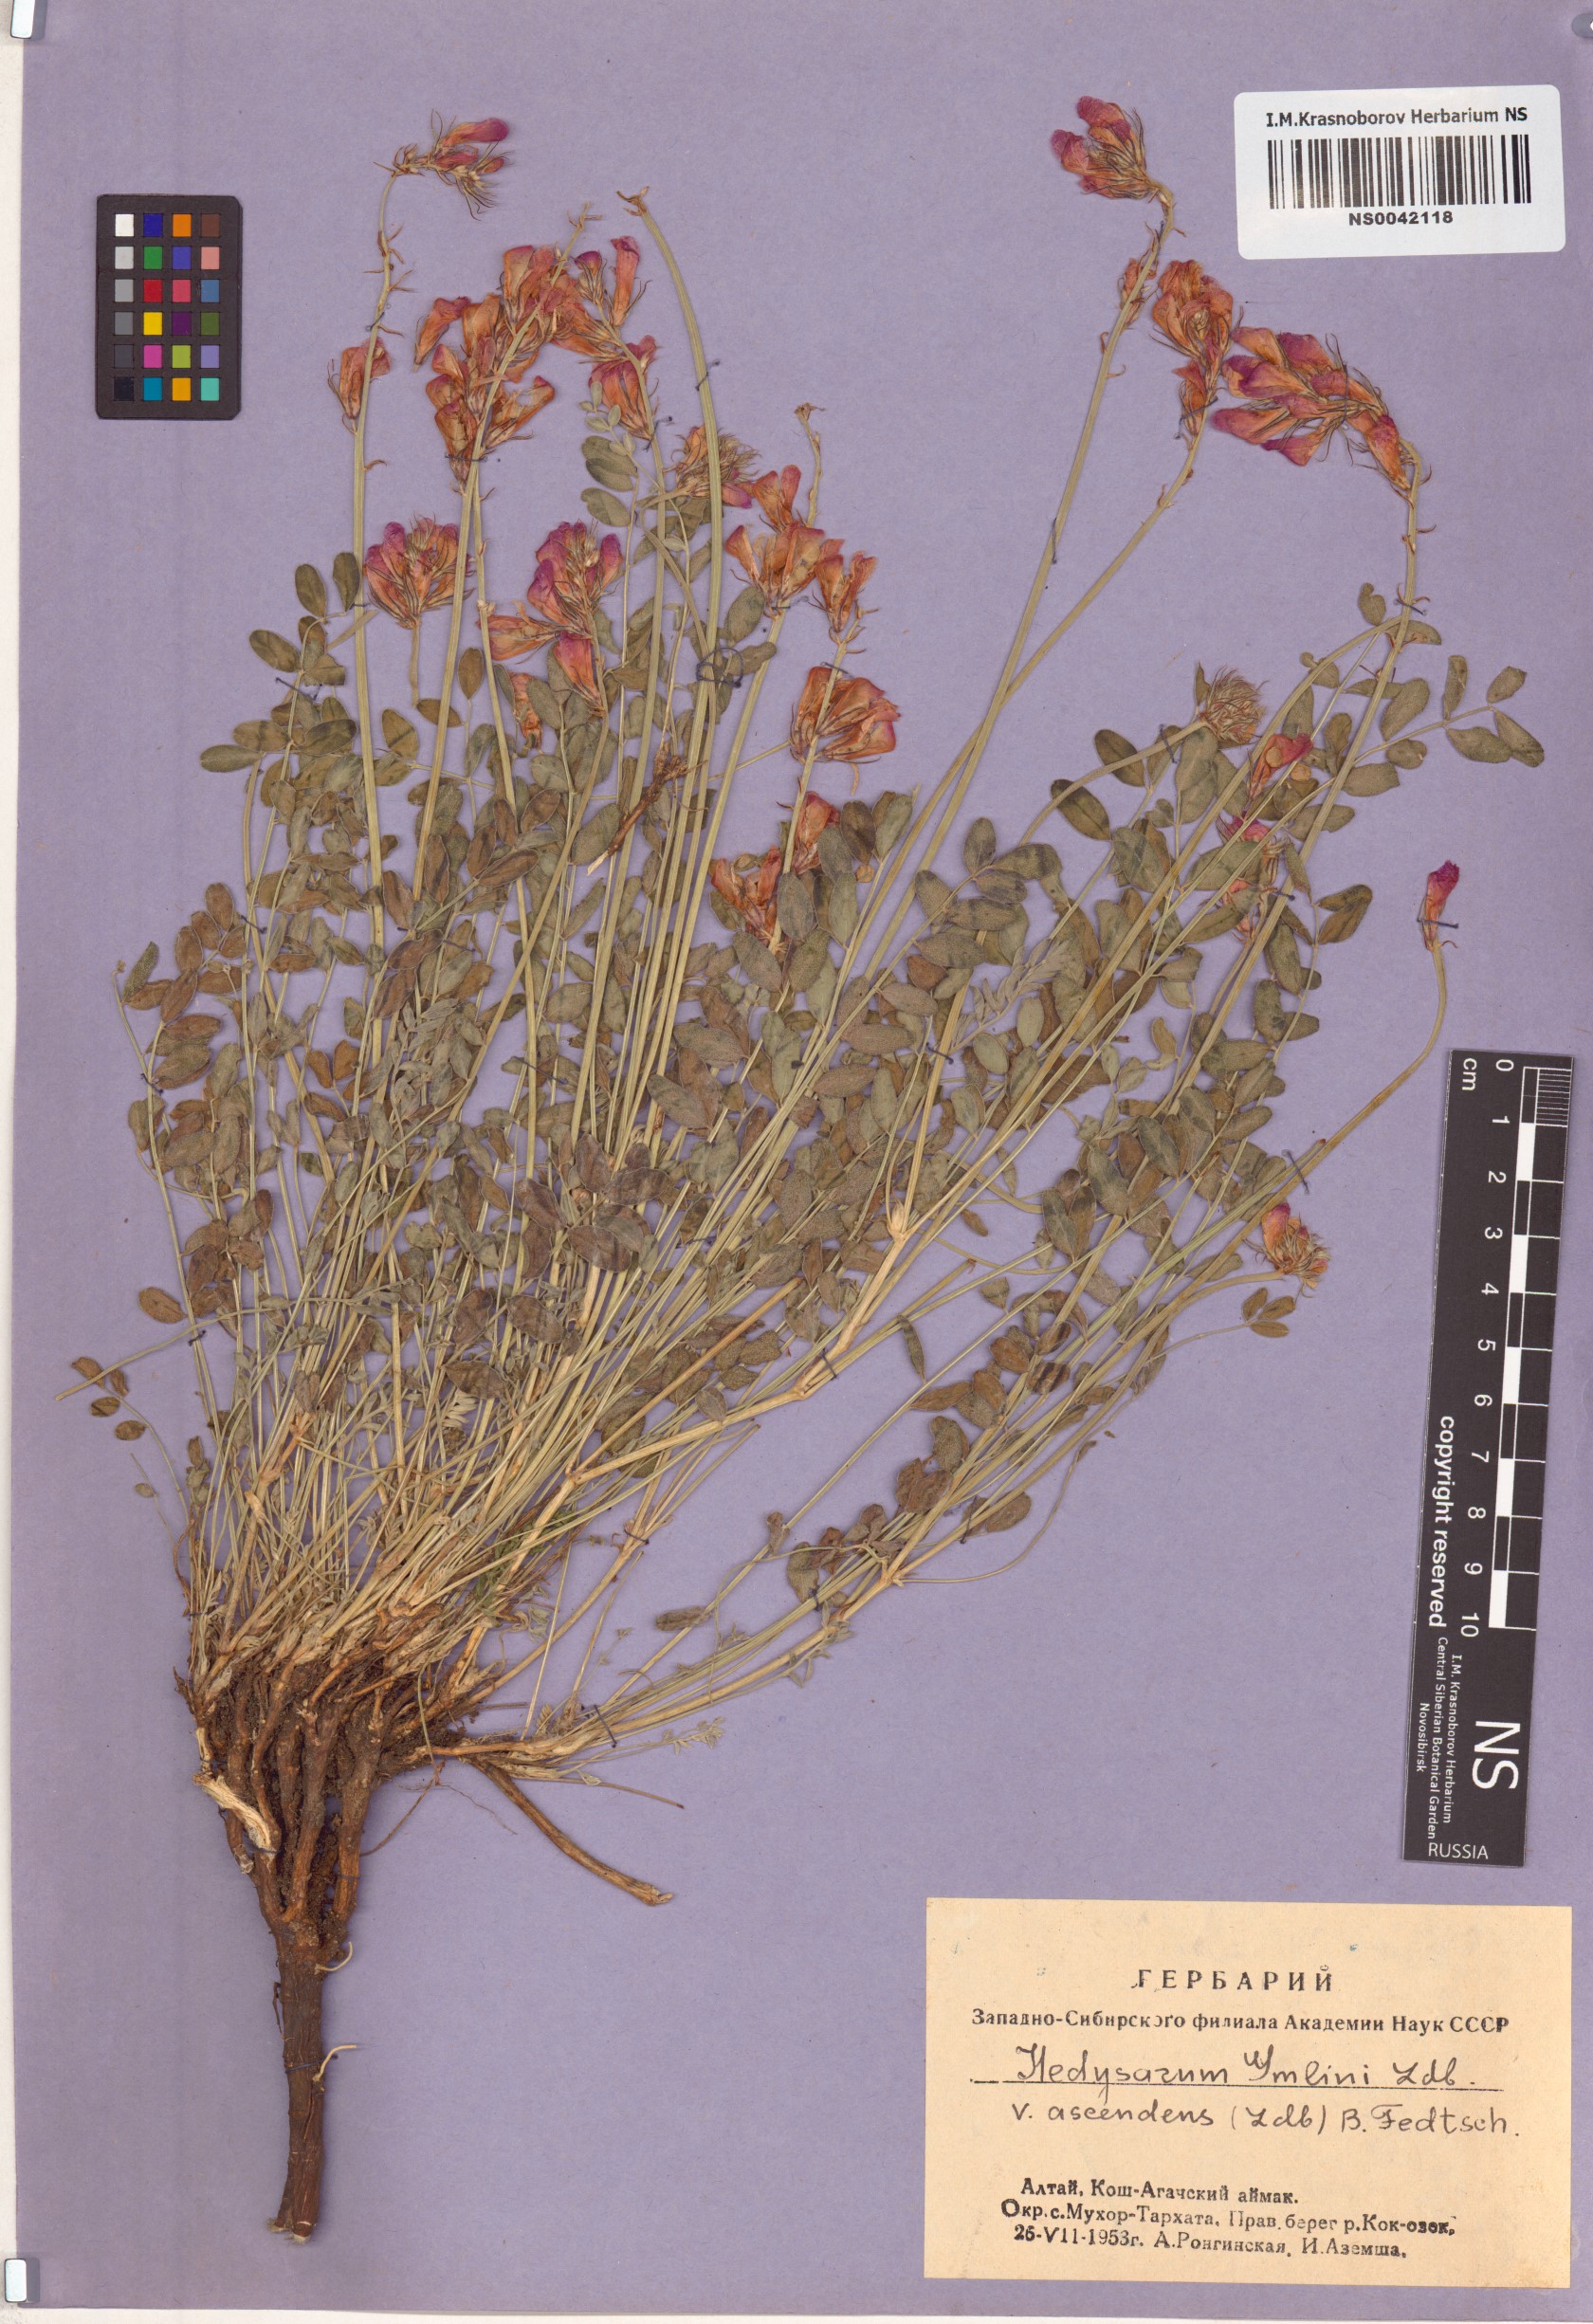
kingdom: Plantae
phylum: Tracheophyta
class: Magnoliopsida
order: Fabales
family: Fabaceae
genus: Hedysarum
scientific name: Hedysarum gmelinii
